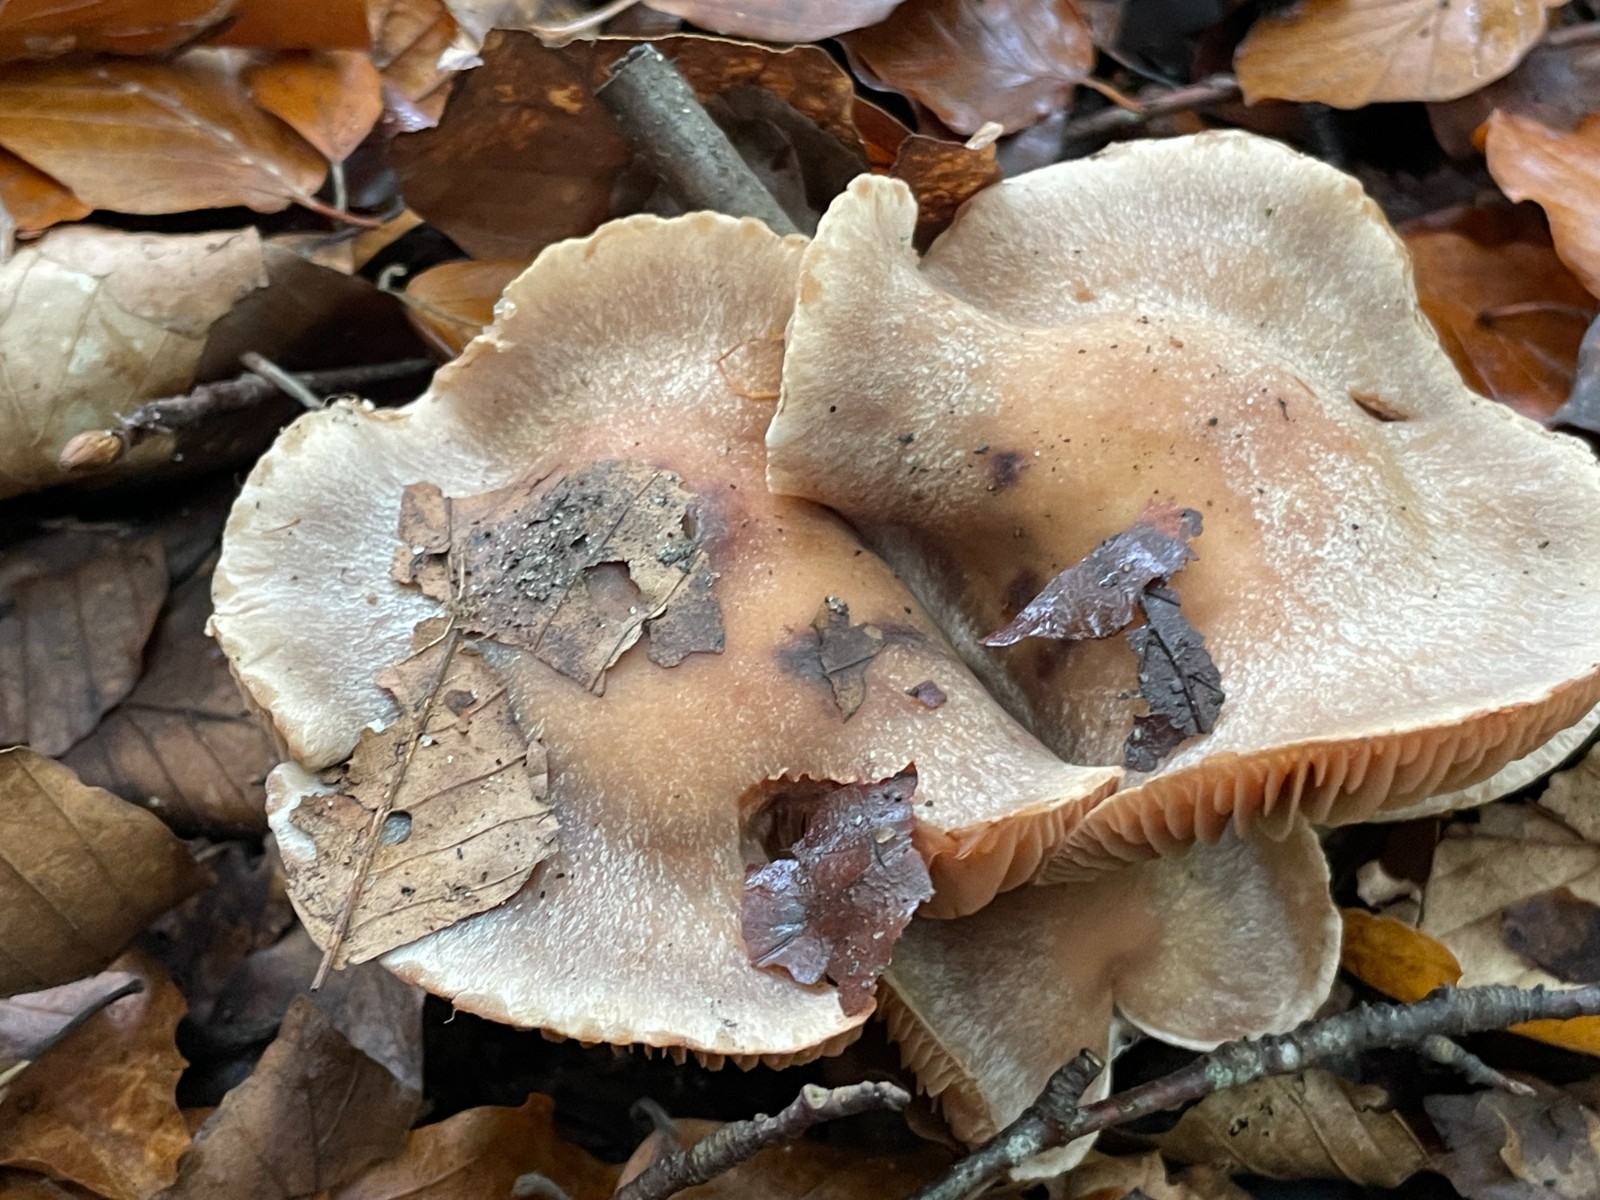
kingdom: Fungi
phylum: Basidiomycota
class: Agaricomycetes
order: Agaricales
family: Cortinariaceae
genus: Cortinarius
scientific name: Cortinarius
